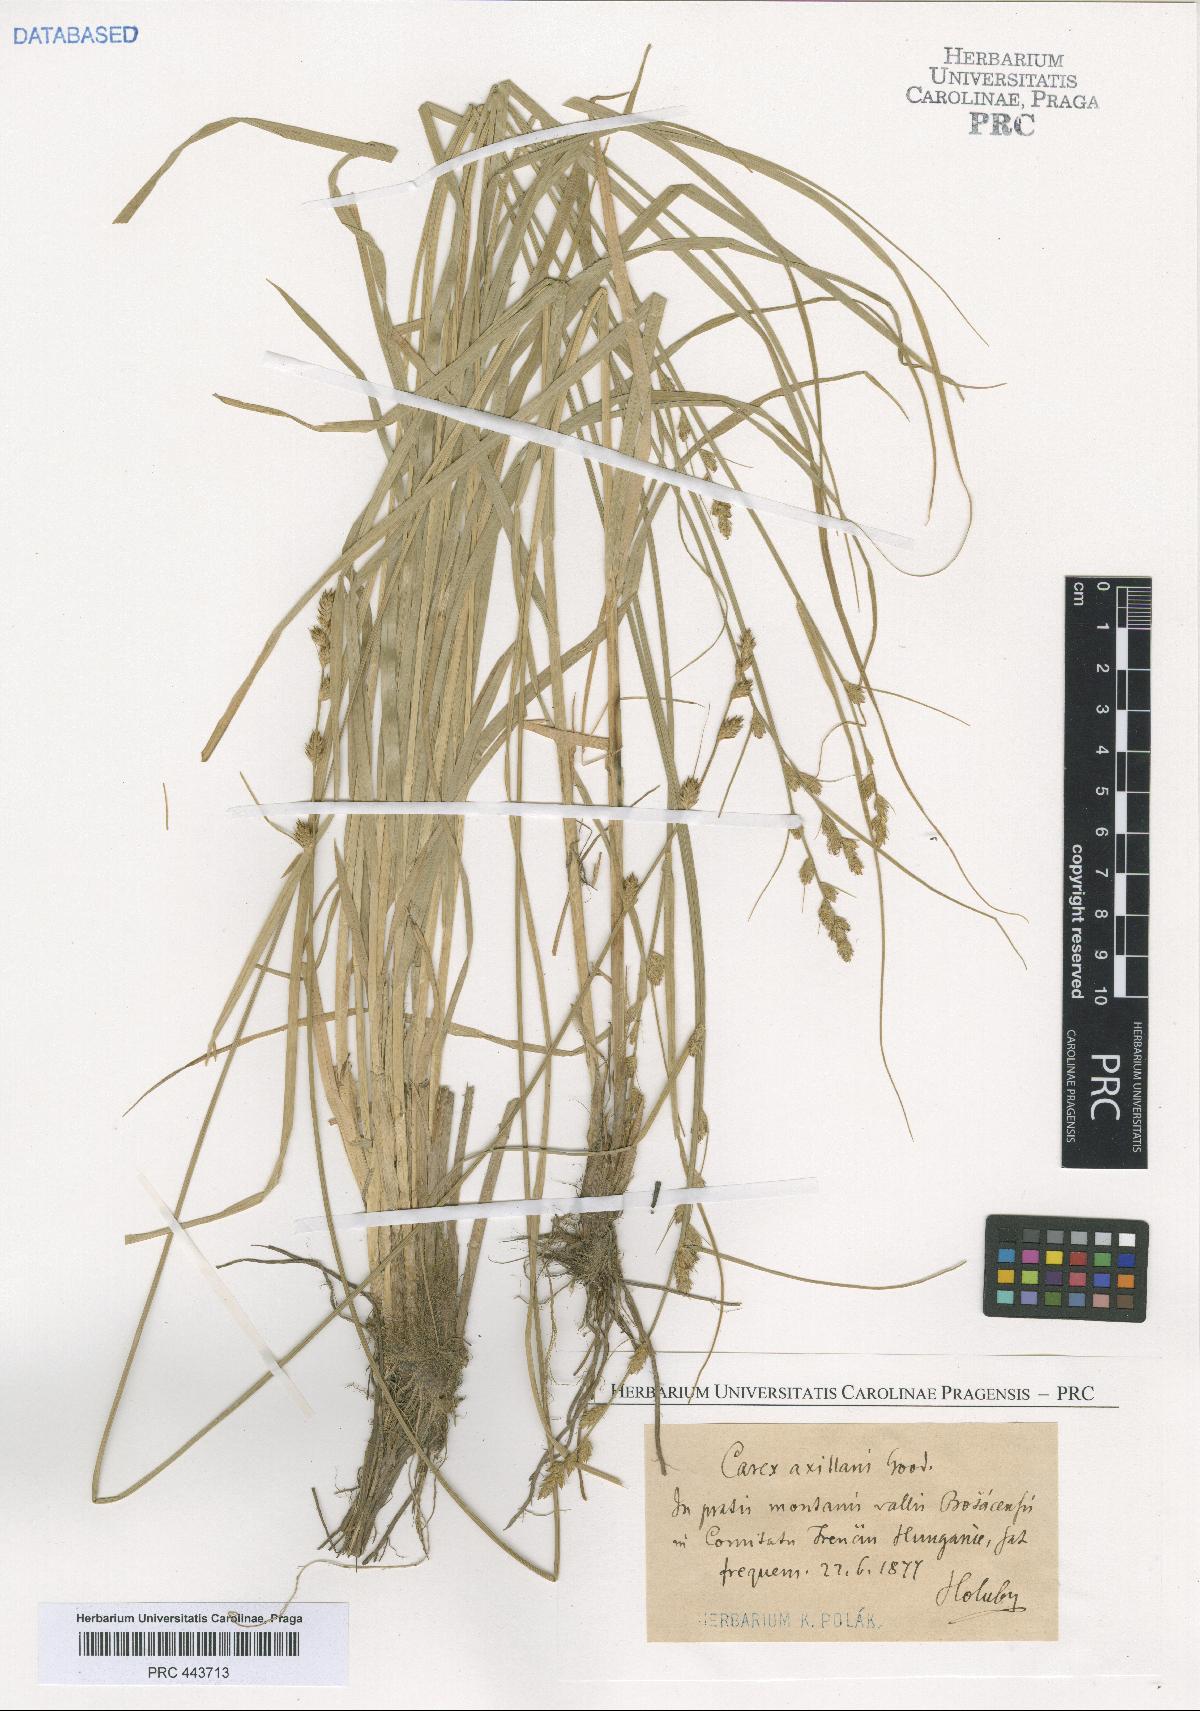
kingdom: Plantae
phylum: Tracheophyta
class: Liliopsida
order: Poales
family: Cyperaceae
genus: Carex
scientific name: Carex pseudoaxillaris
